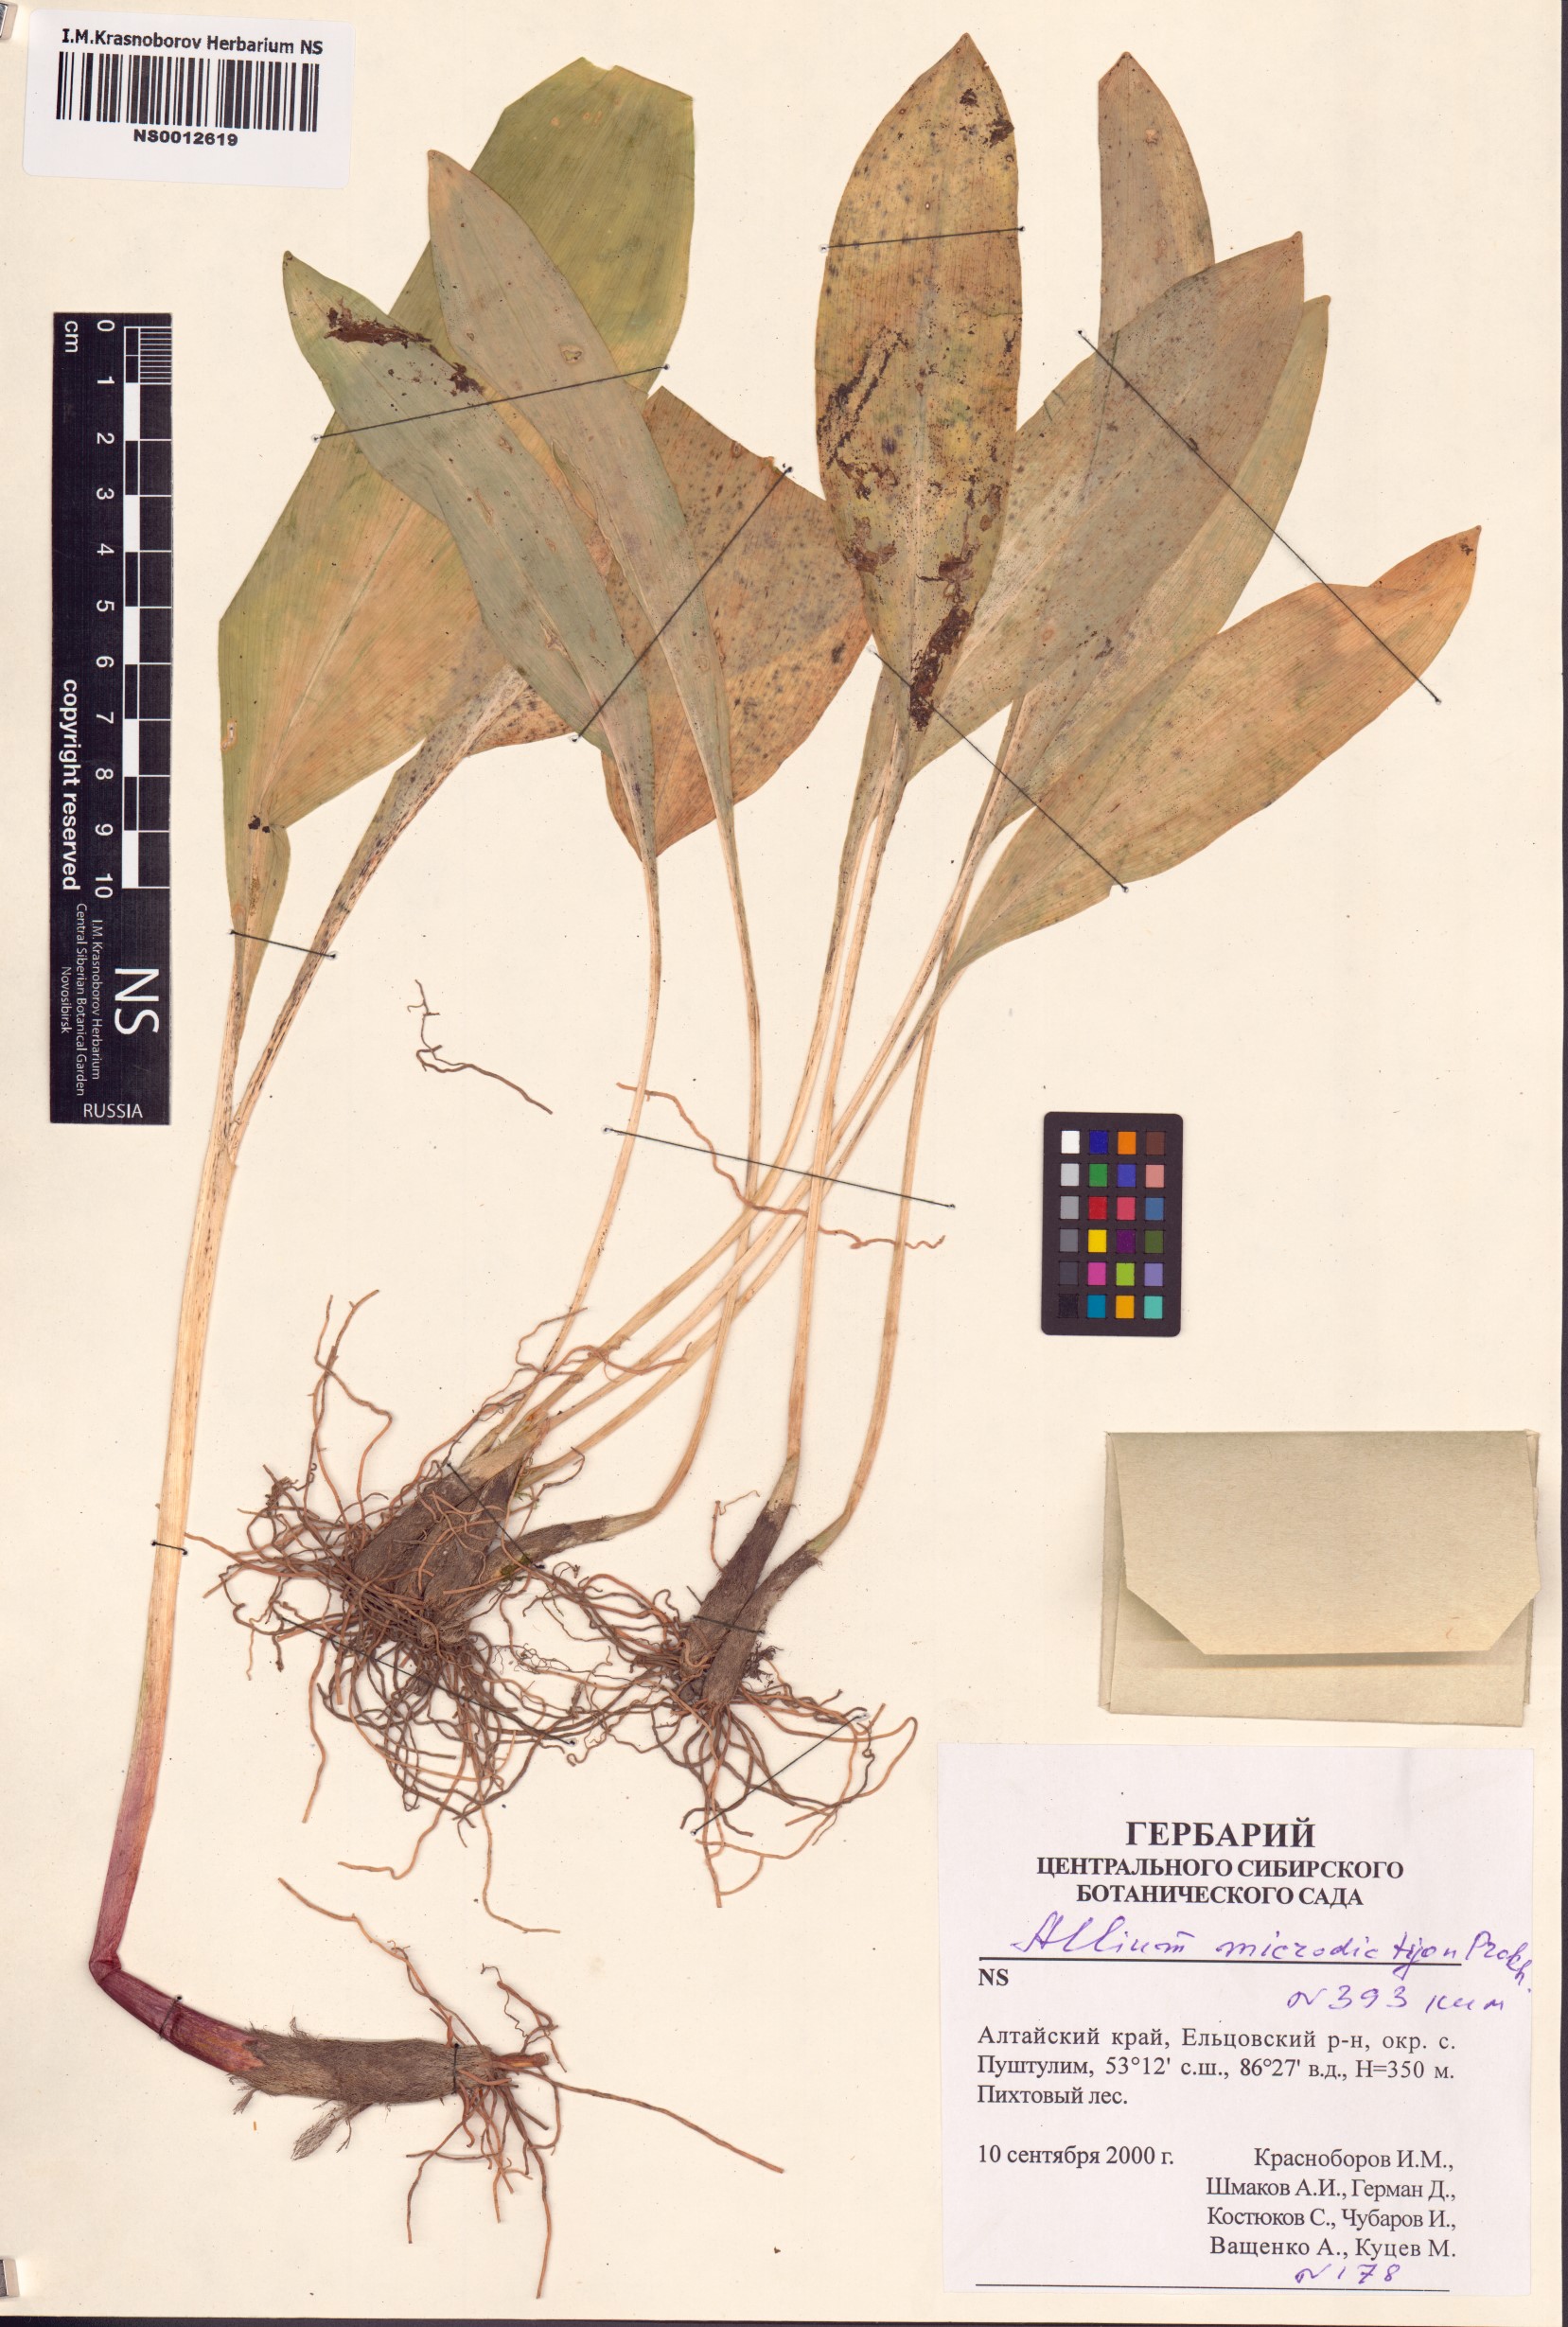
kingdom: Plantae
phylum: Tracheophyta
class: Liliopsida
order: Asparagales
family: Amaryllidaceae
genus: Allium
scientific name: Allium microdictyon
